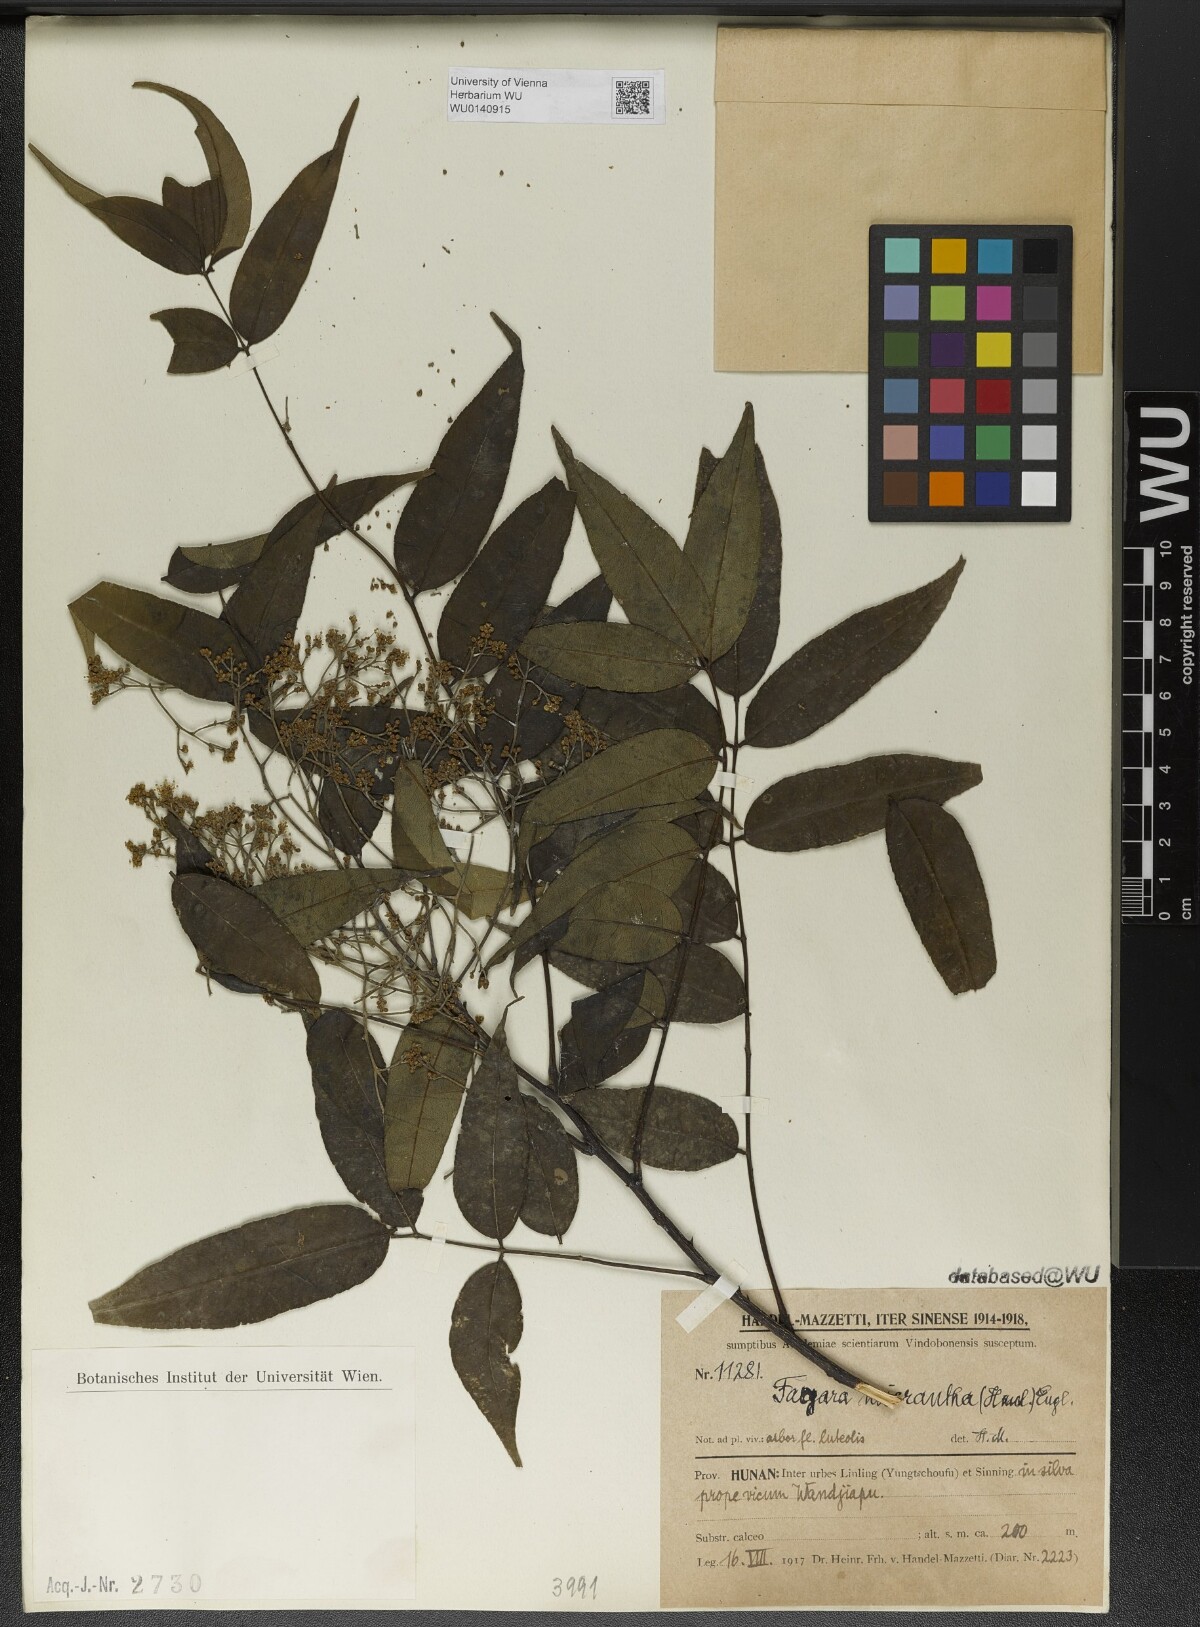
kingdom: Plantae
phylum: Tracheophyta
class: Magnoliopsida
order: Sapindales
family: Rutaceae
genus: Zanthoxylum
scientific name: Zanthoxylum micranthum
